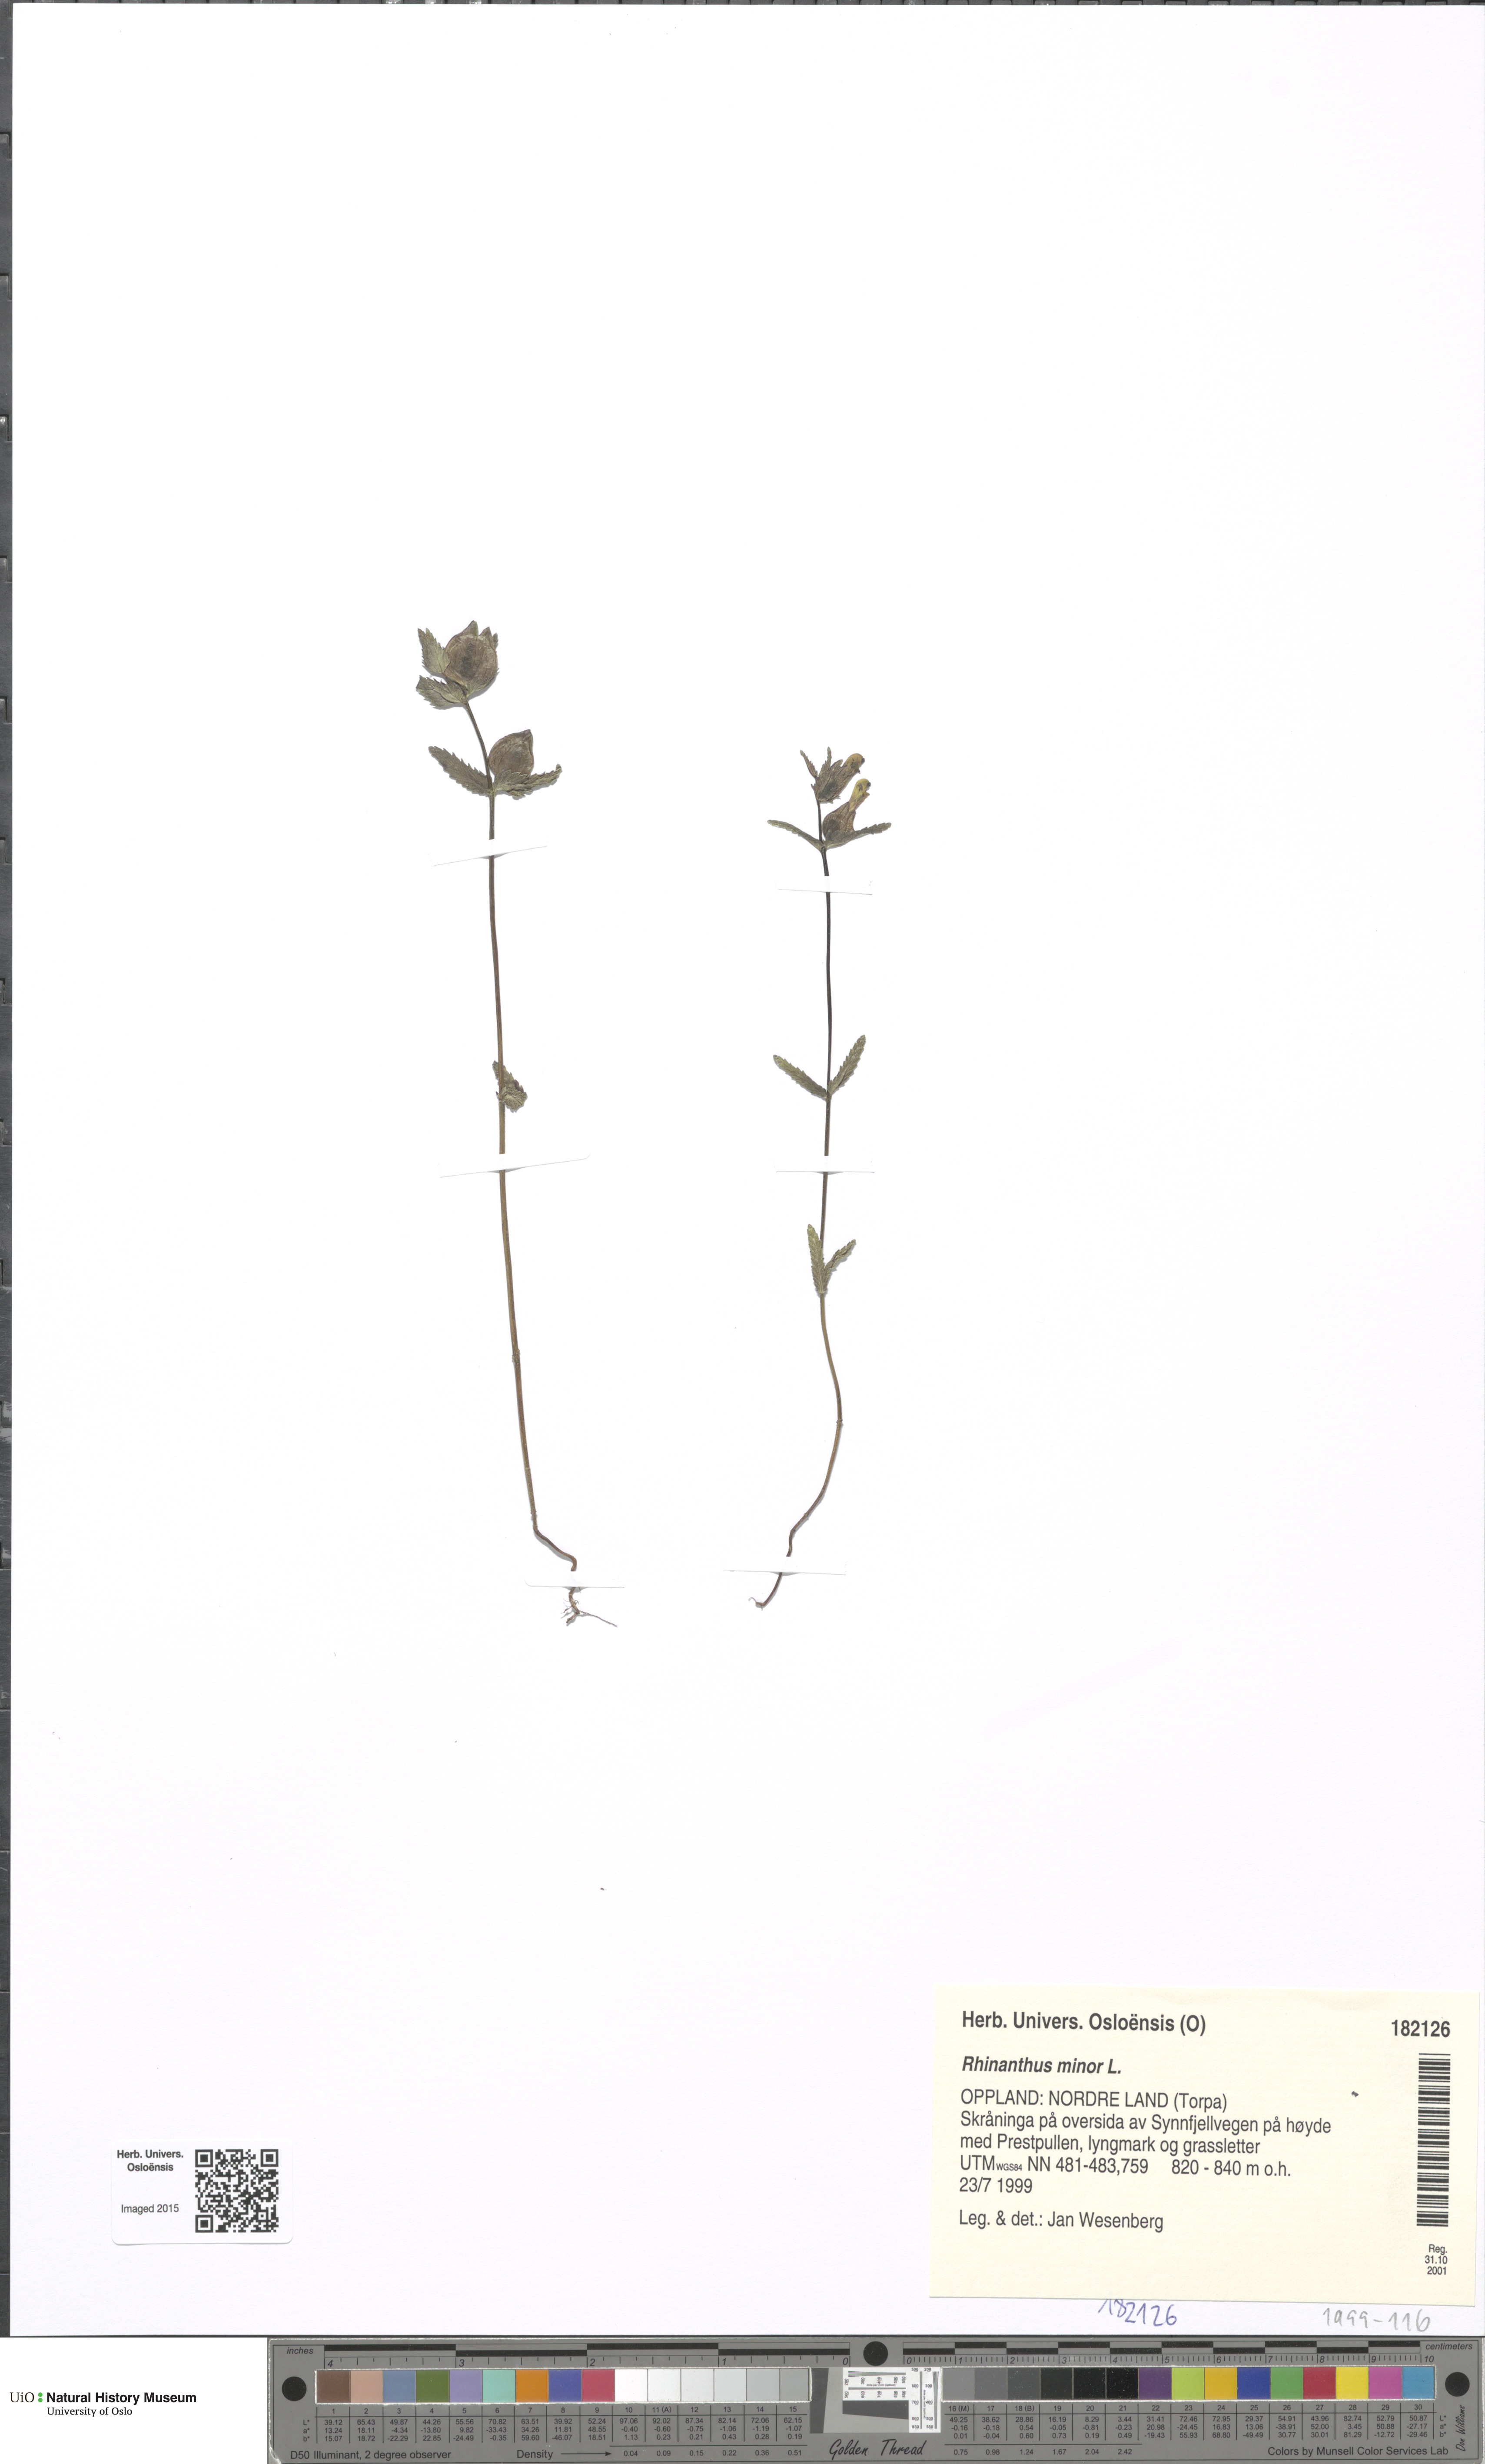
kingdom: Plantae
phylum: Tracheophyta
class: Magnoliopsida
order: Lamiales
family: Orobanchaceae
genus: Rhinanthus
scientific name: Rhinanthus minor
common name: Yellow-rattle
